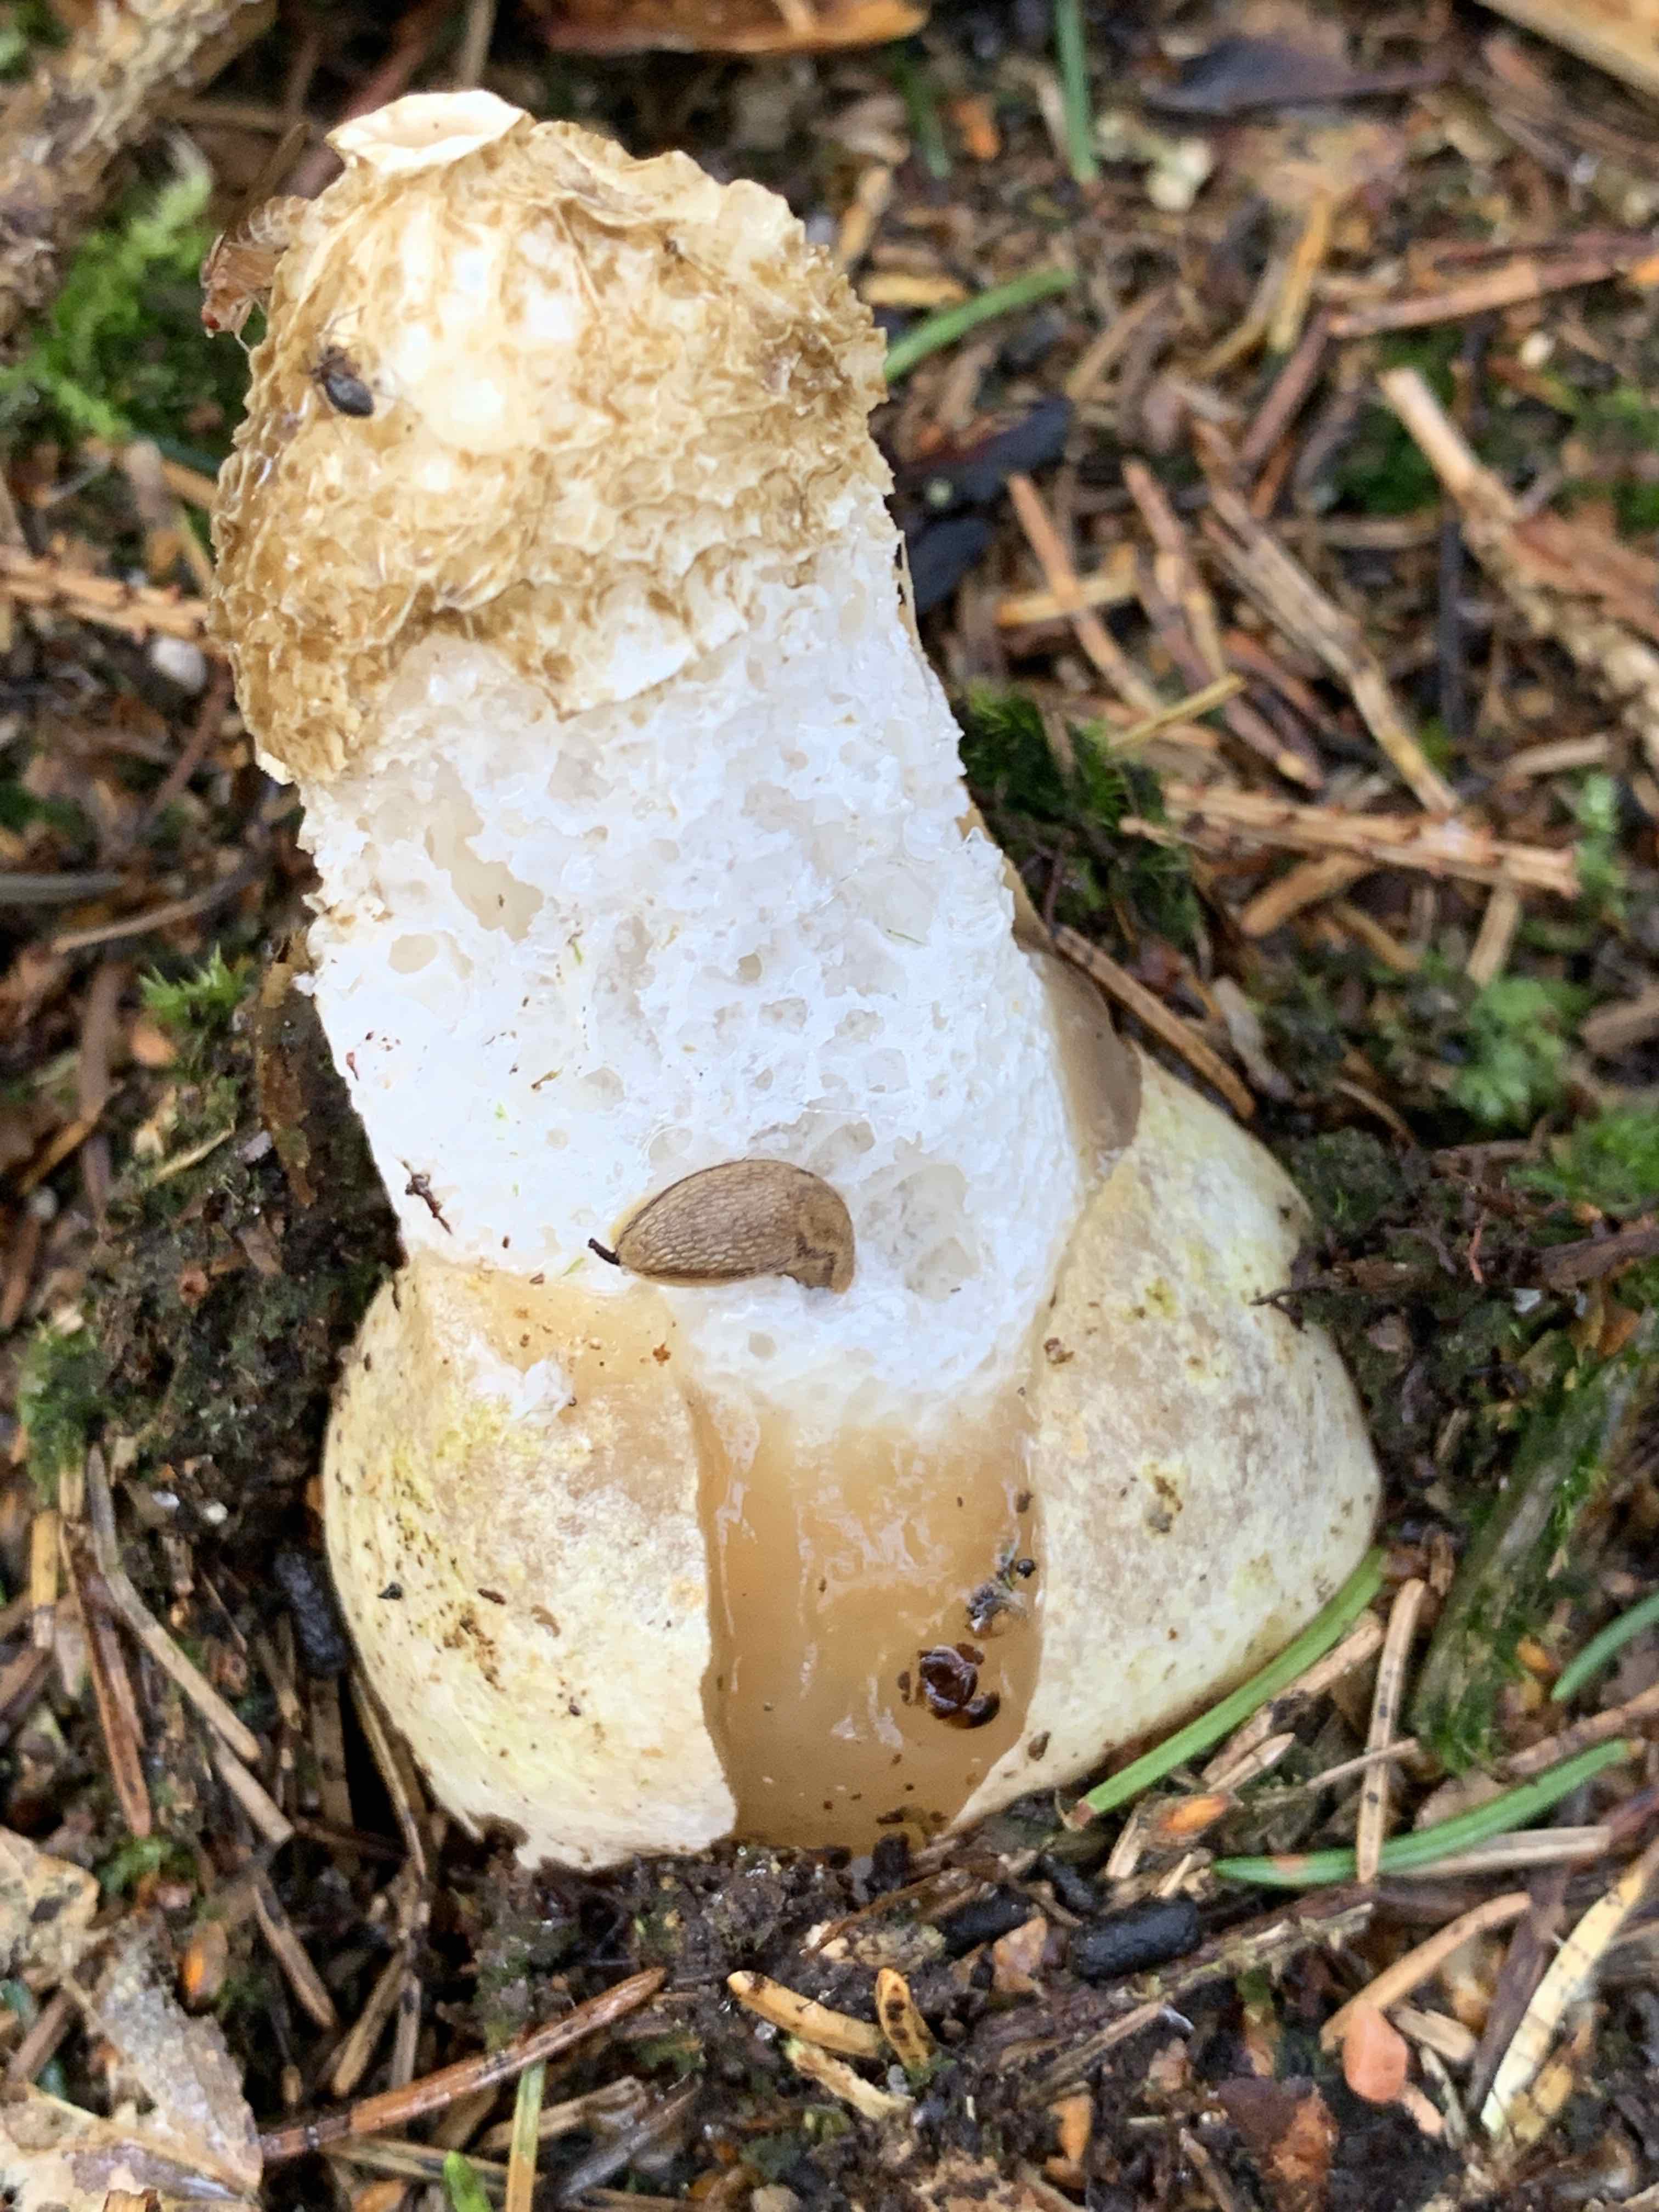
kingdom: Fungi
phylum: Basidiomycota
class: Agaricomycetes
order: Phallales
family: Phallaceae
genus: Phallus
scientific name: Phallus impudicus
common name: almindelig stinksvamp
